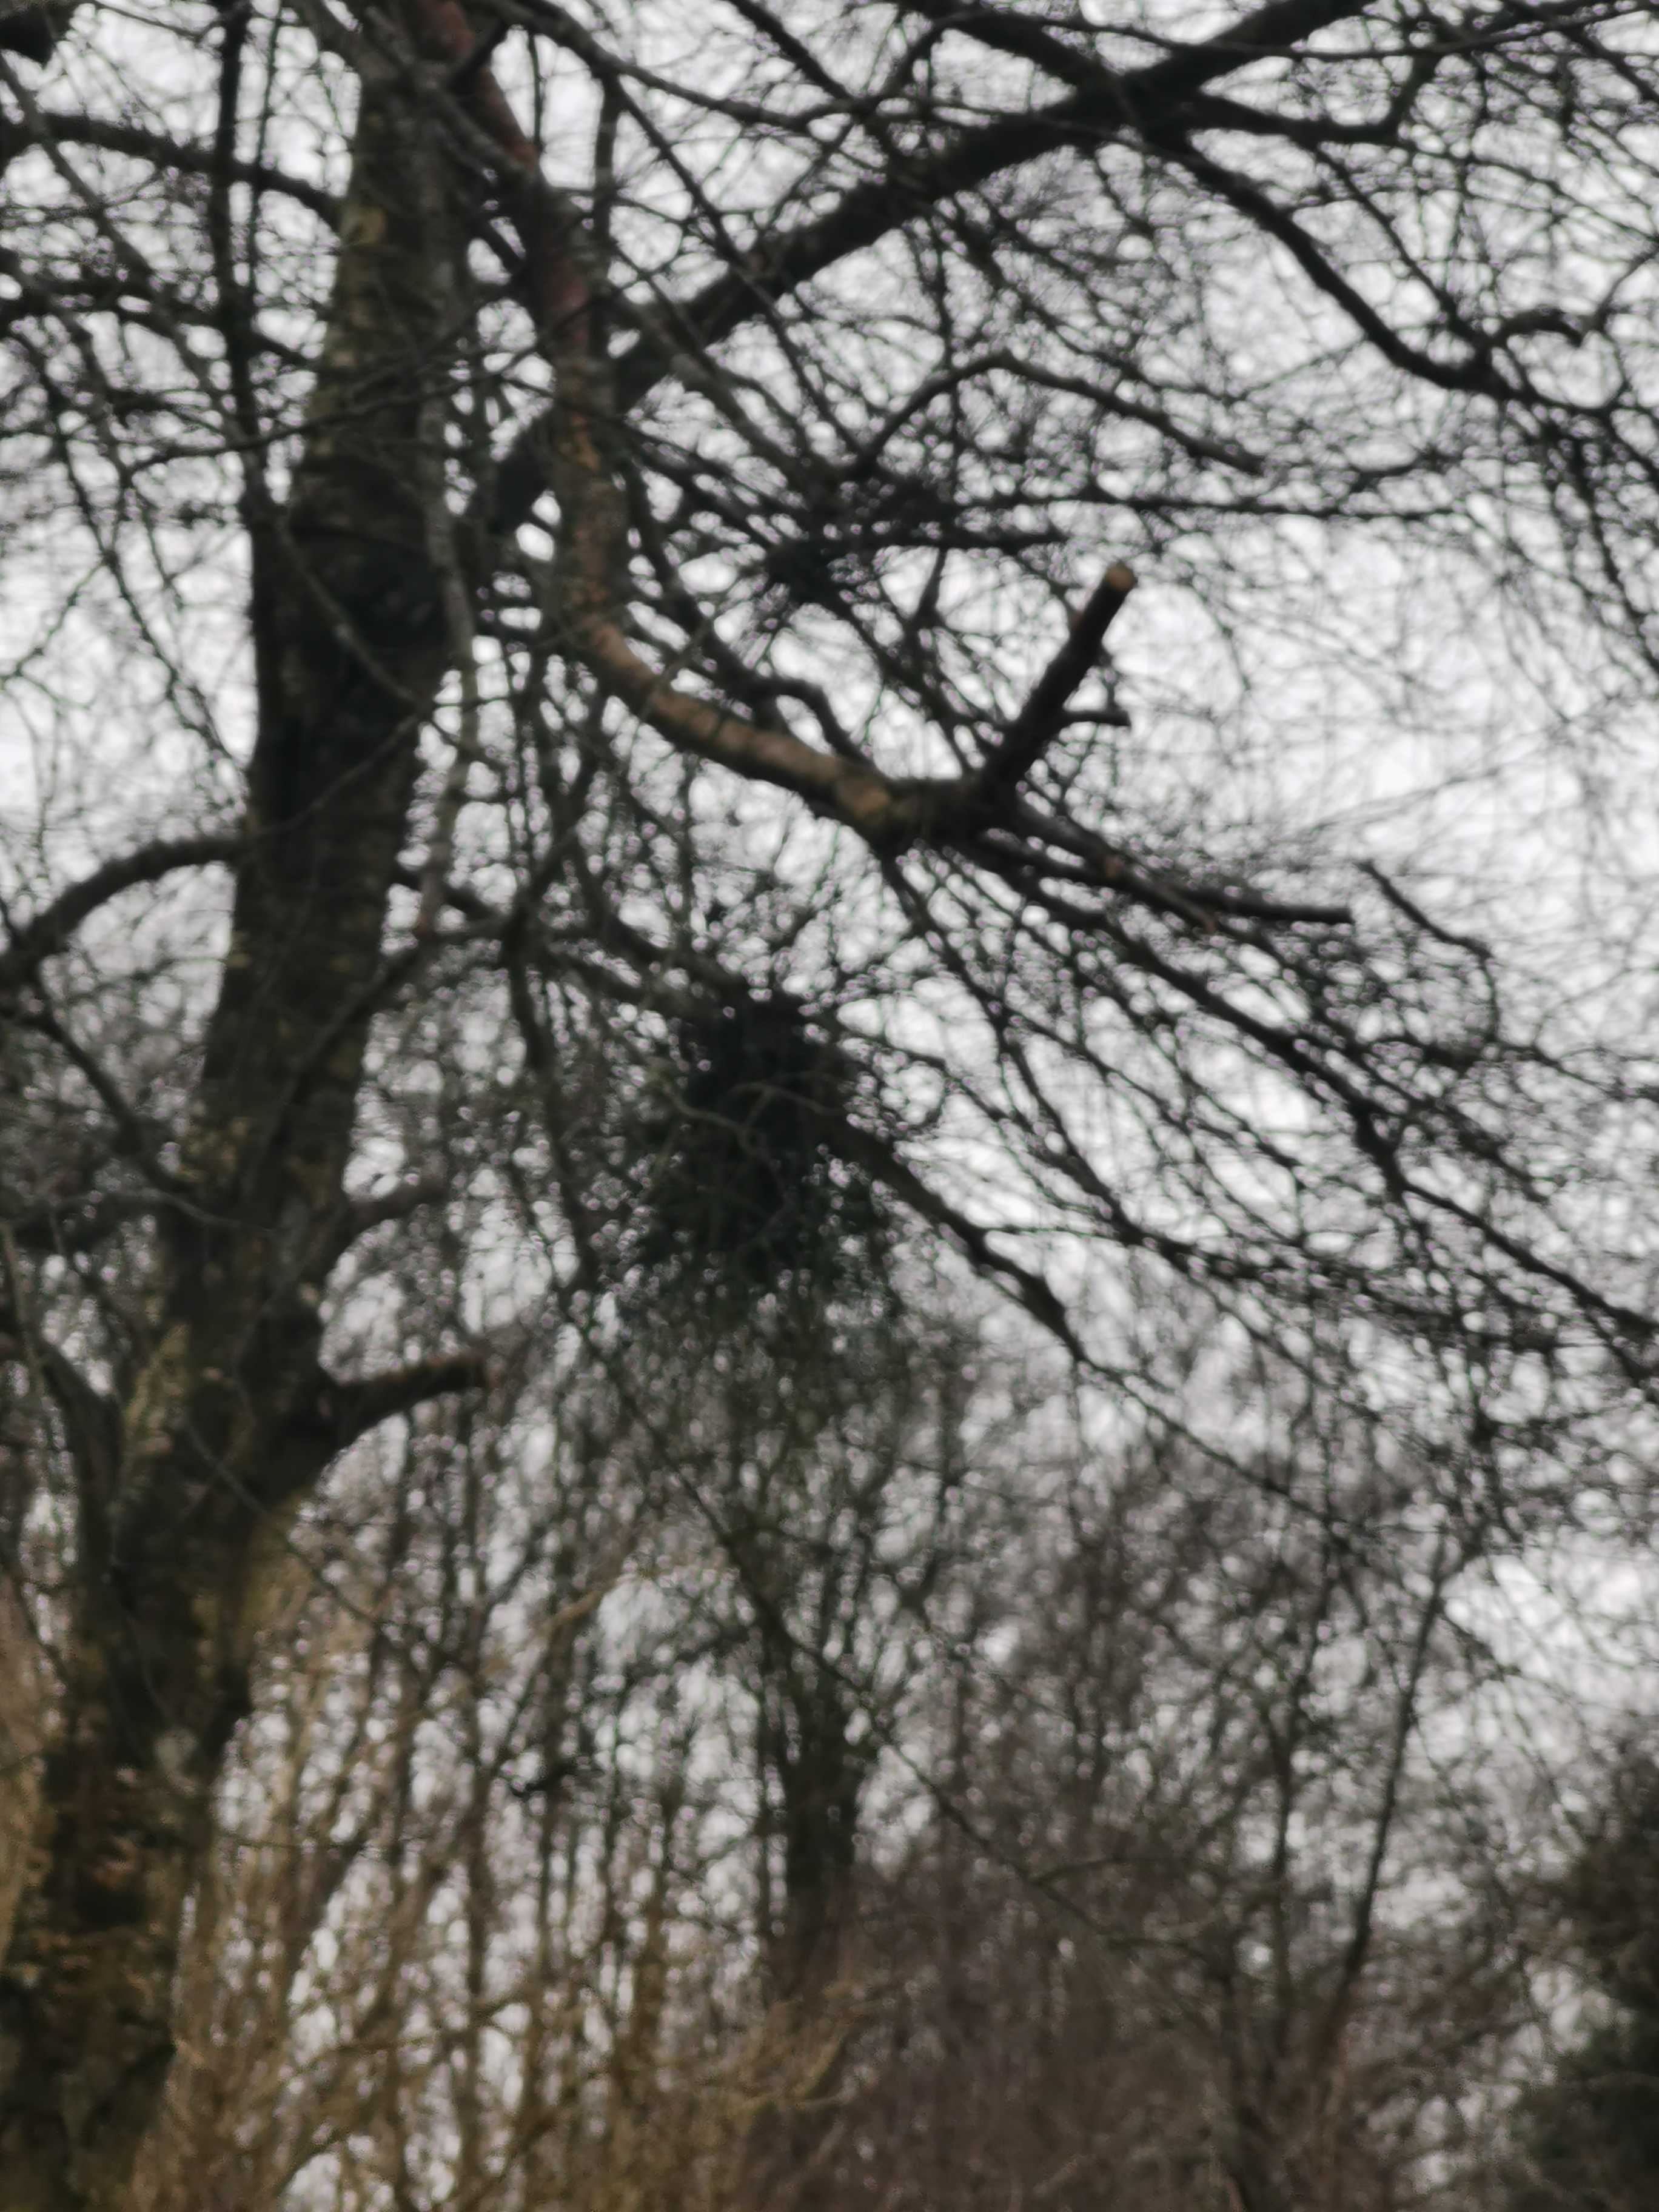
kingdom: Fungi
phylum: Ascomycota
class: Taphrinomycetes
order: Taphrinales
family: Taphrinaceae
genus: Taphrina
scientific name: Taphrina betulina
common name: hekse-sækdug
